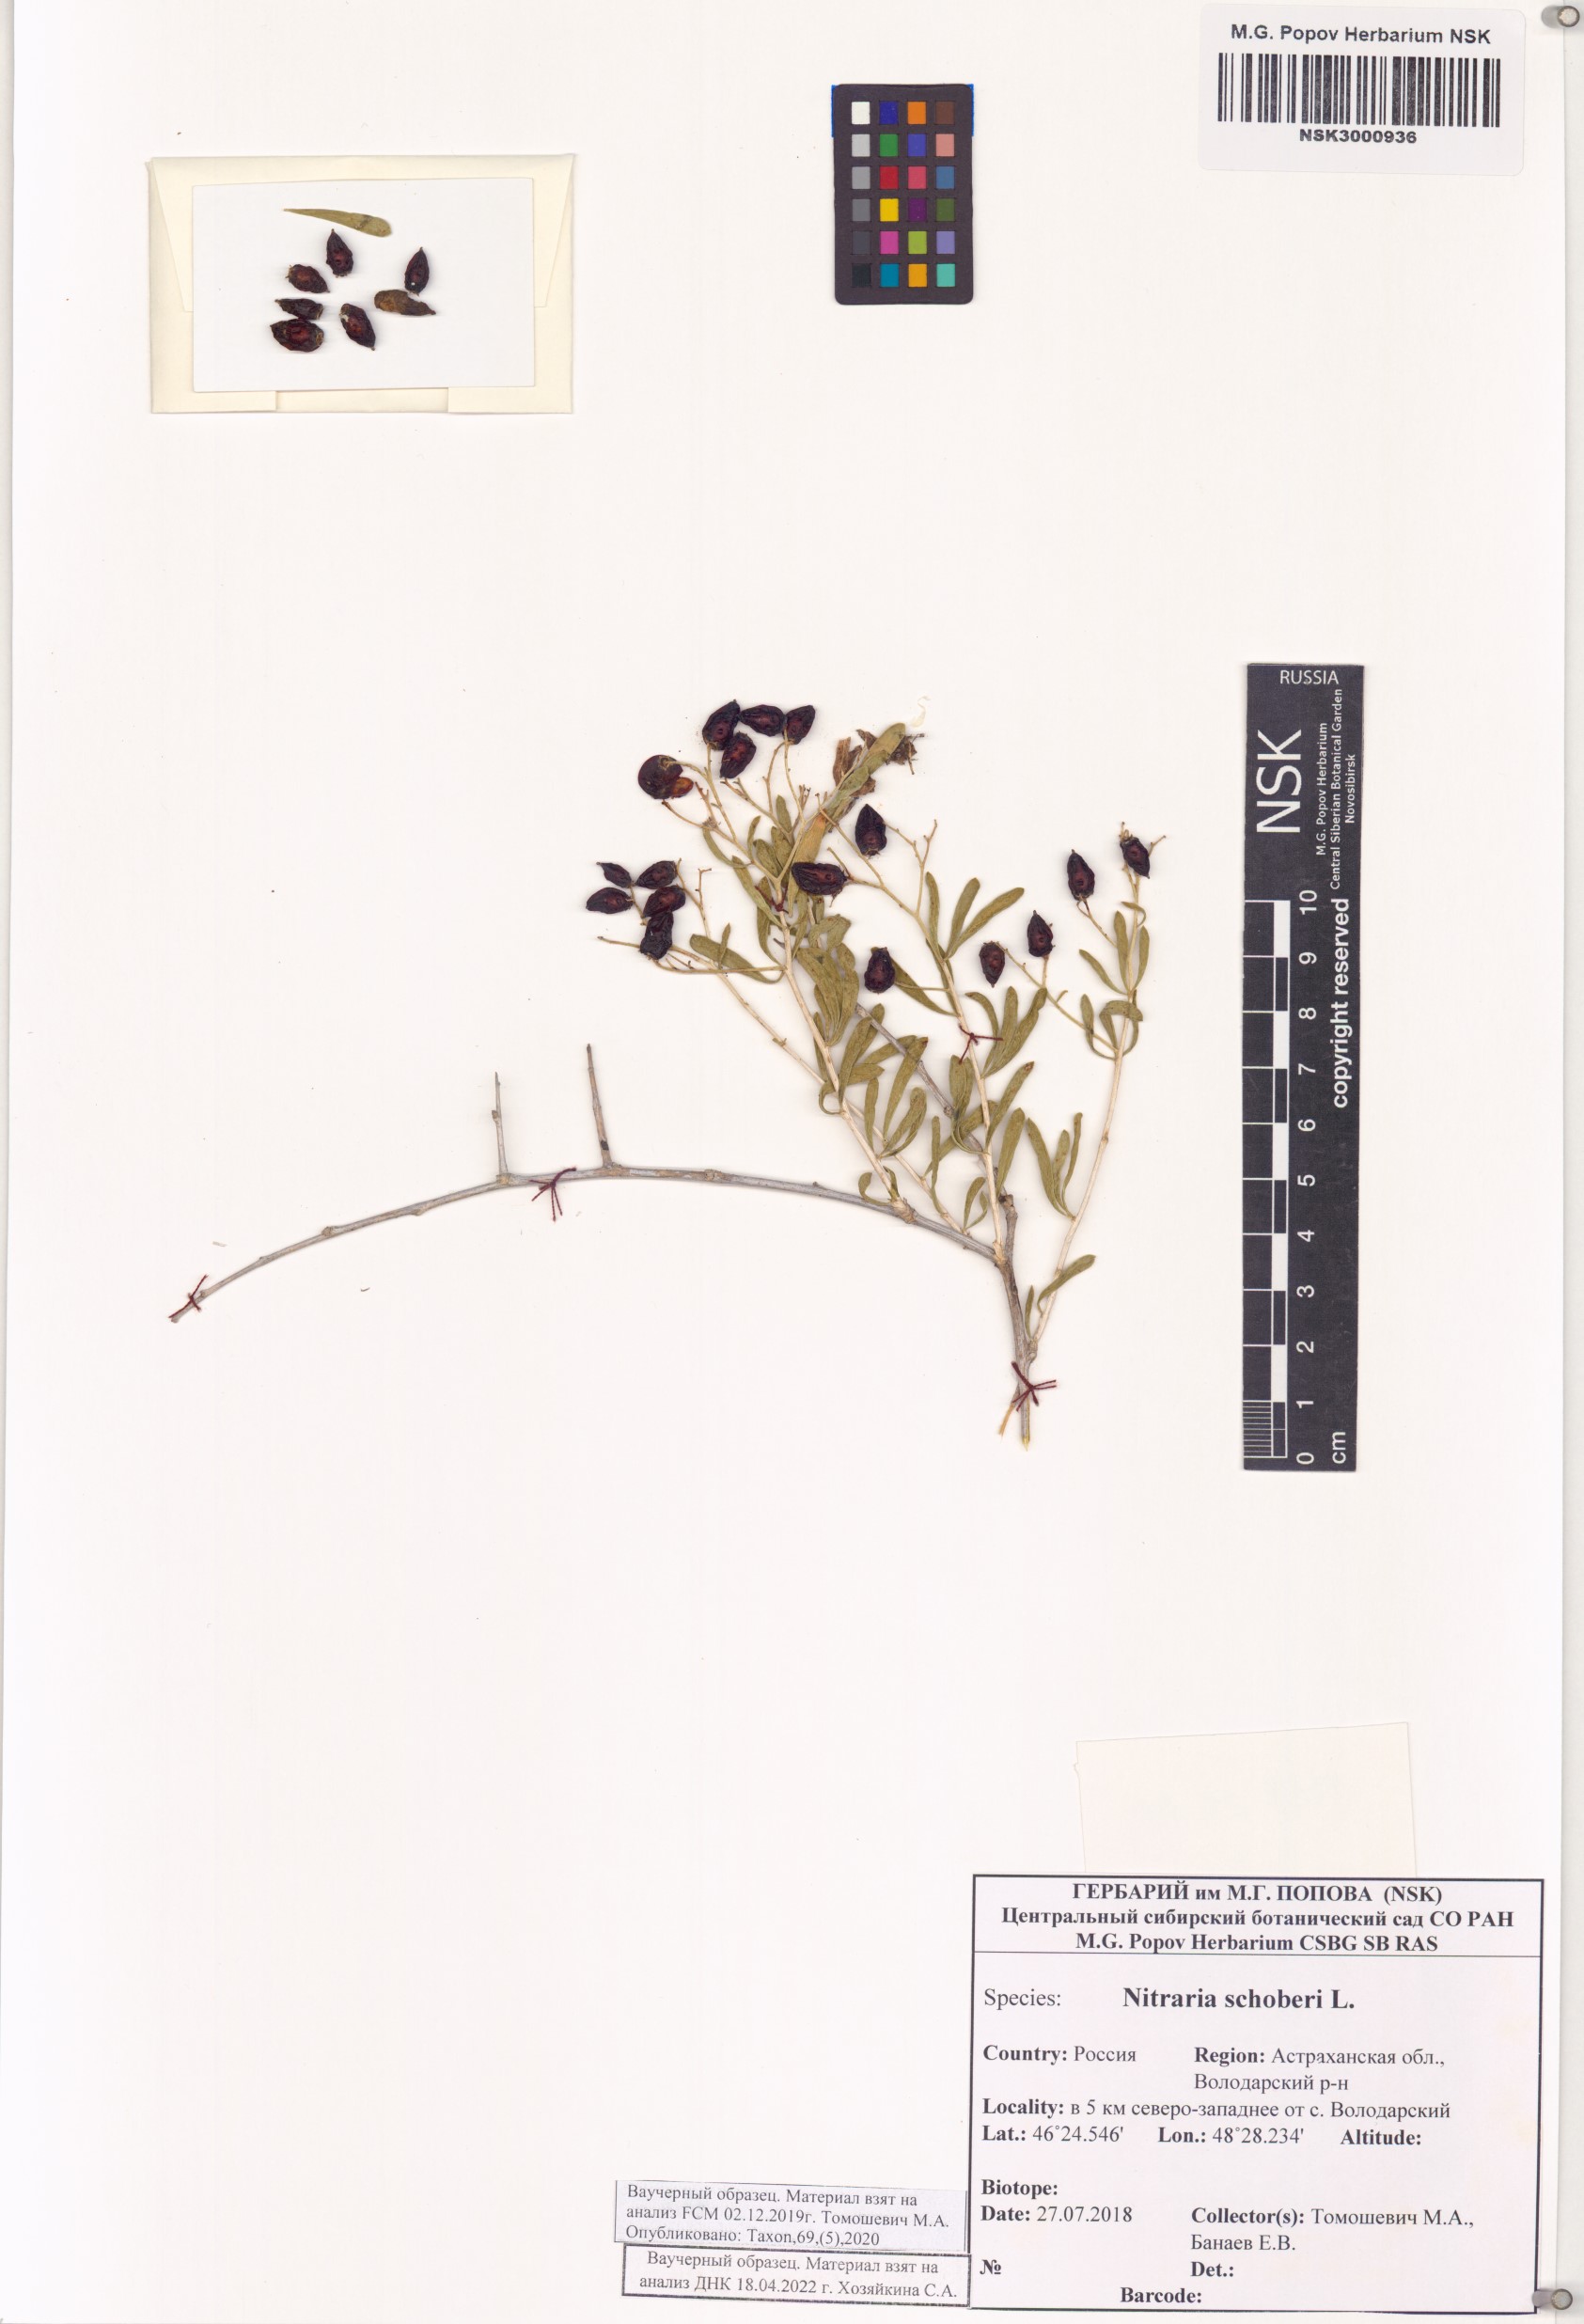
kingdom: Plantae
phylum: Tracheophyta
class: Magnoliopsida
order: Sapindales
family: Nitrariaceae
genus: Nitraria
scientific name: Nitraria schoberi
